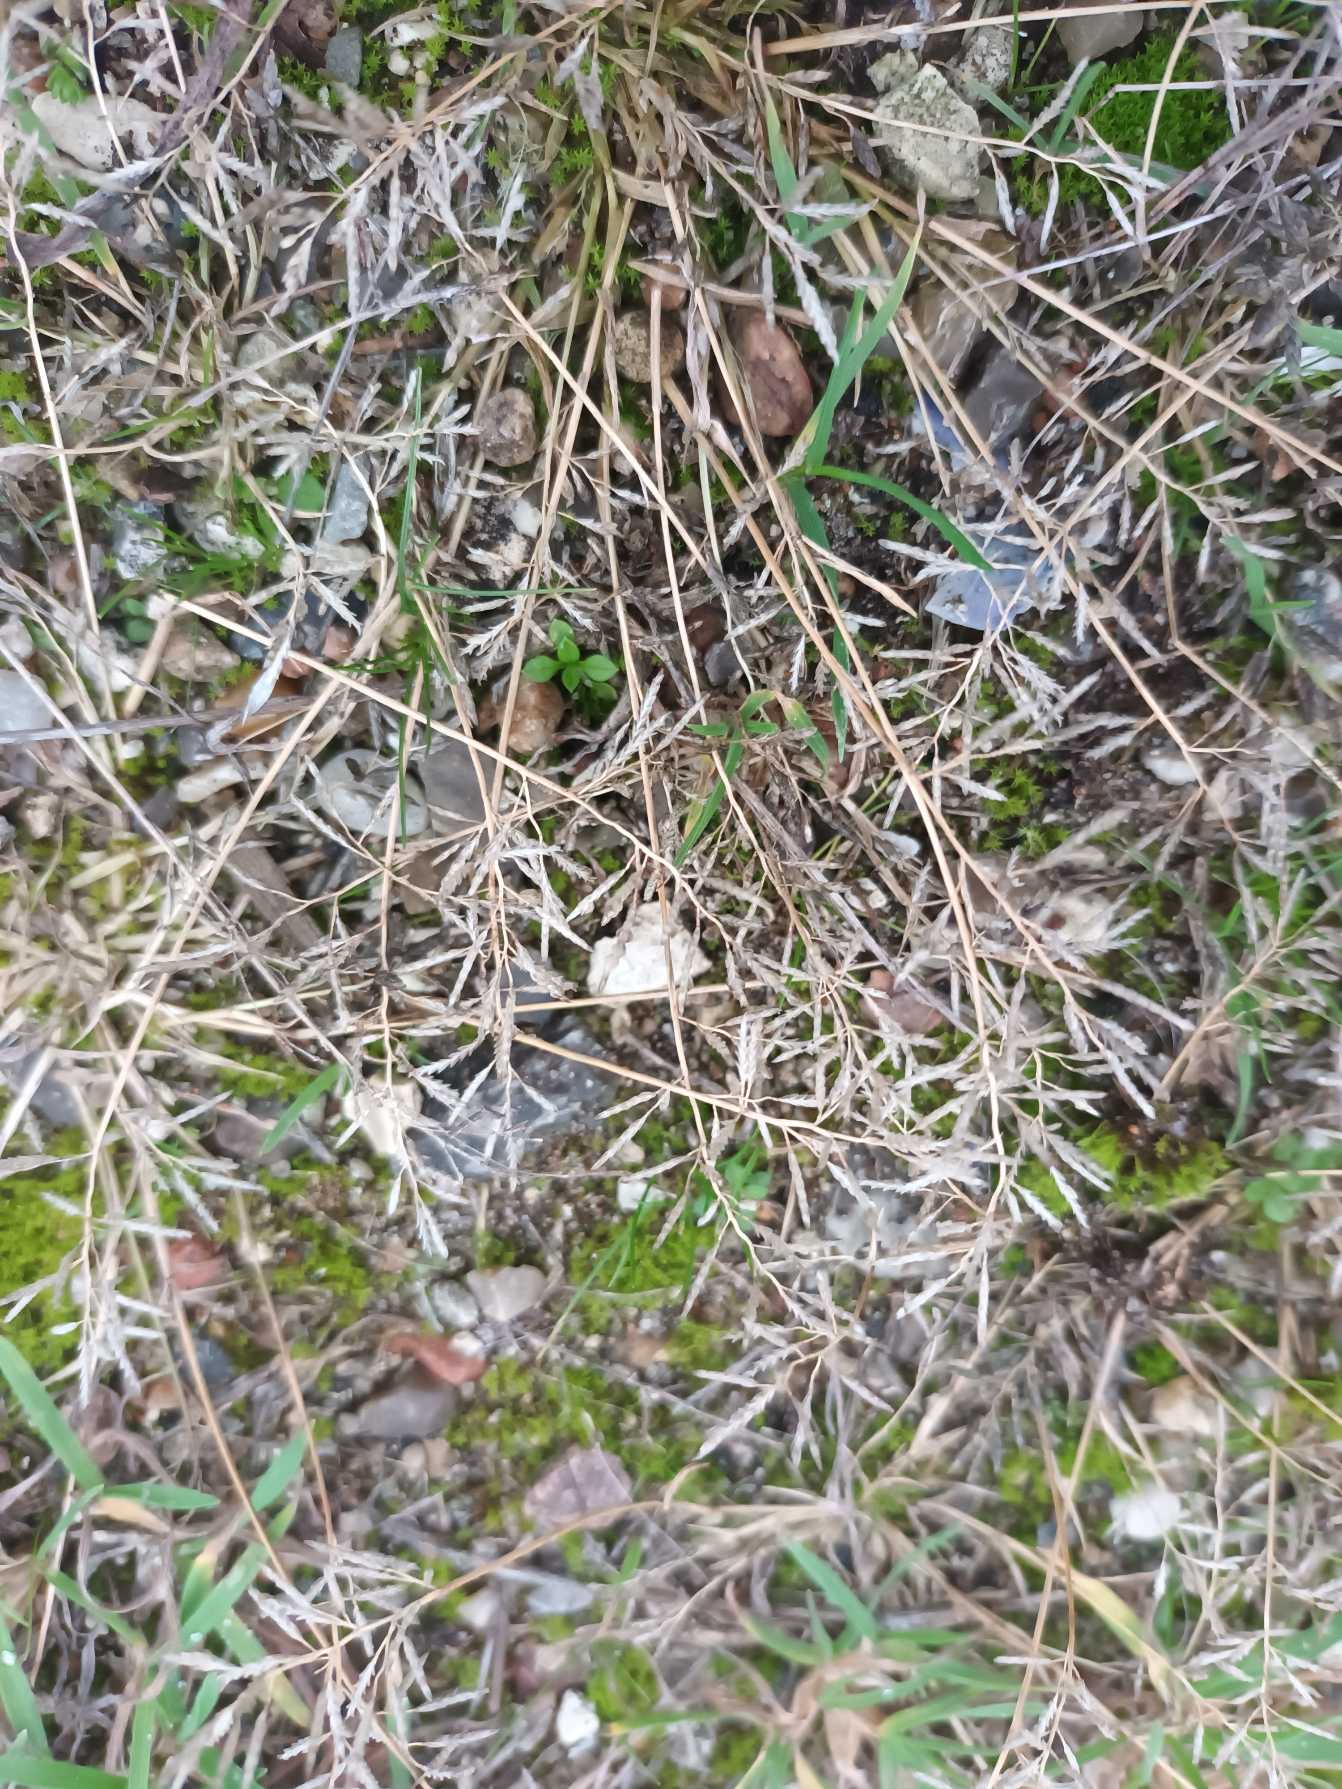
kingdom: Plantae
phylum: Tracheophyta
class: Liliopsida
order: Poales
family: Poaceae
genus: Eragrostis
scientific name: Eragrostis minor
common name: Liden kærlighedsgræs
